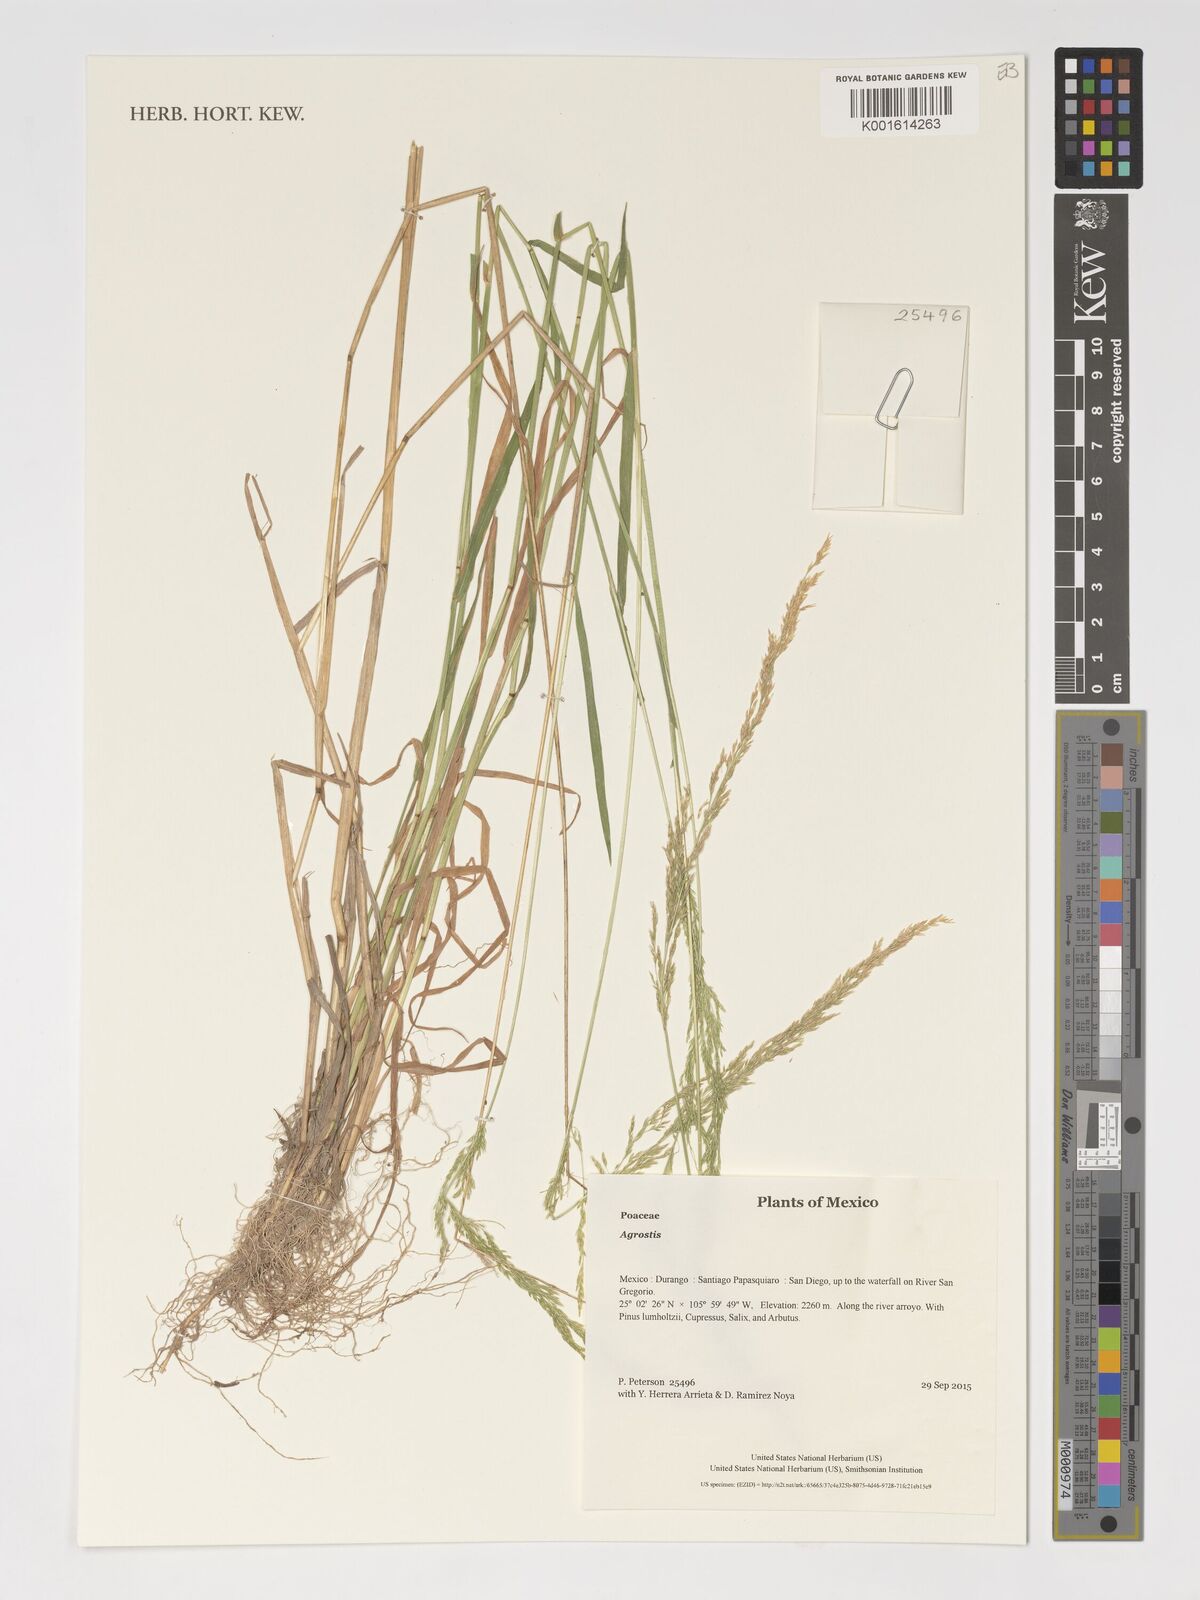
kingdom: Plantae
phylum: Tracheophyta
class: Liliopsida
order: Poales
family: Poaceae
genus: Agrostis
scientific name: Agrostis
